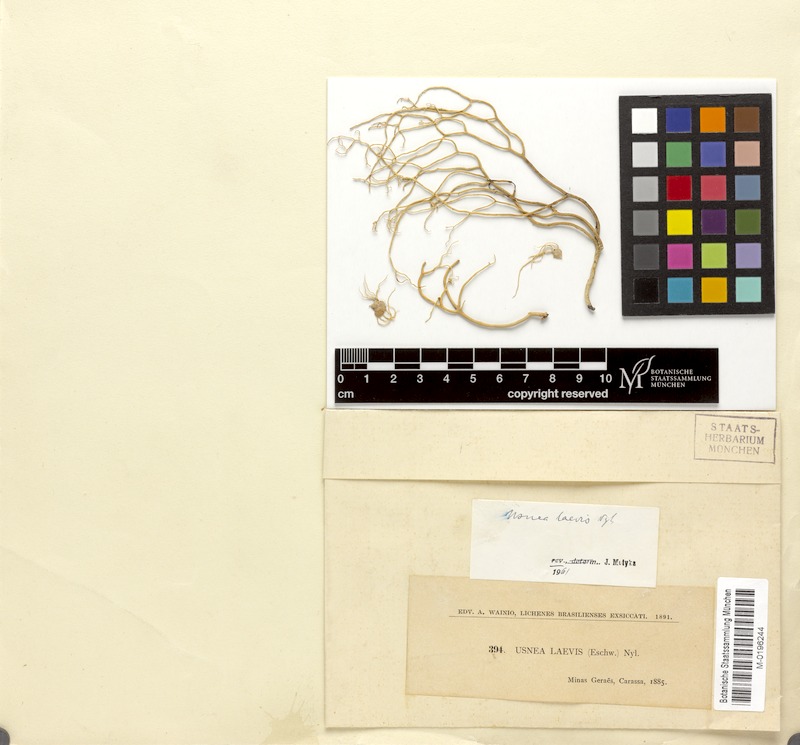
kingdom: Fungi
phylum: Ascomycota
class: Lecanoromycetes
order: Lecanorales
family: Parmeliaceae
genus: Usnea
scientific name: Usnea laevis
